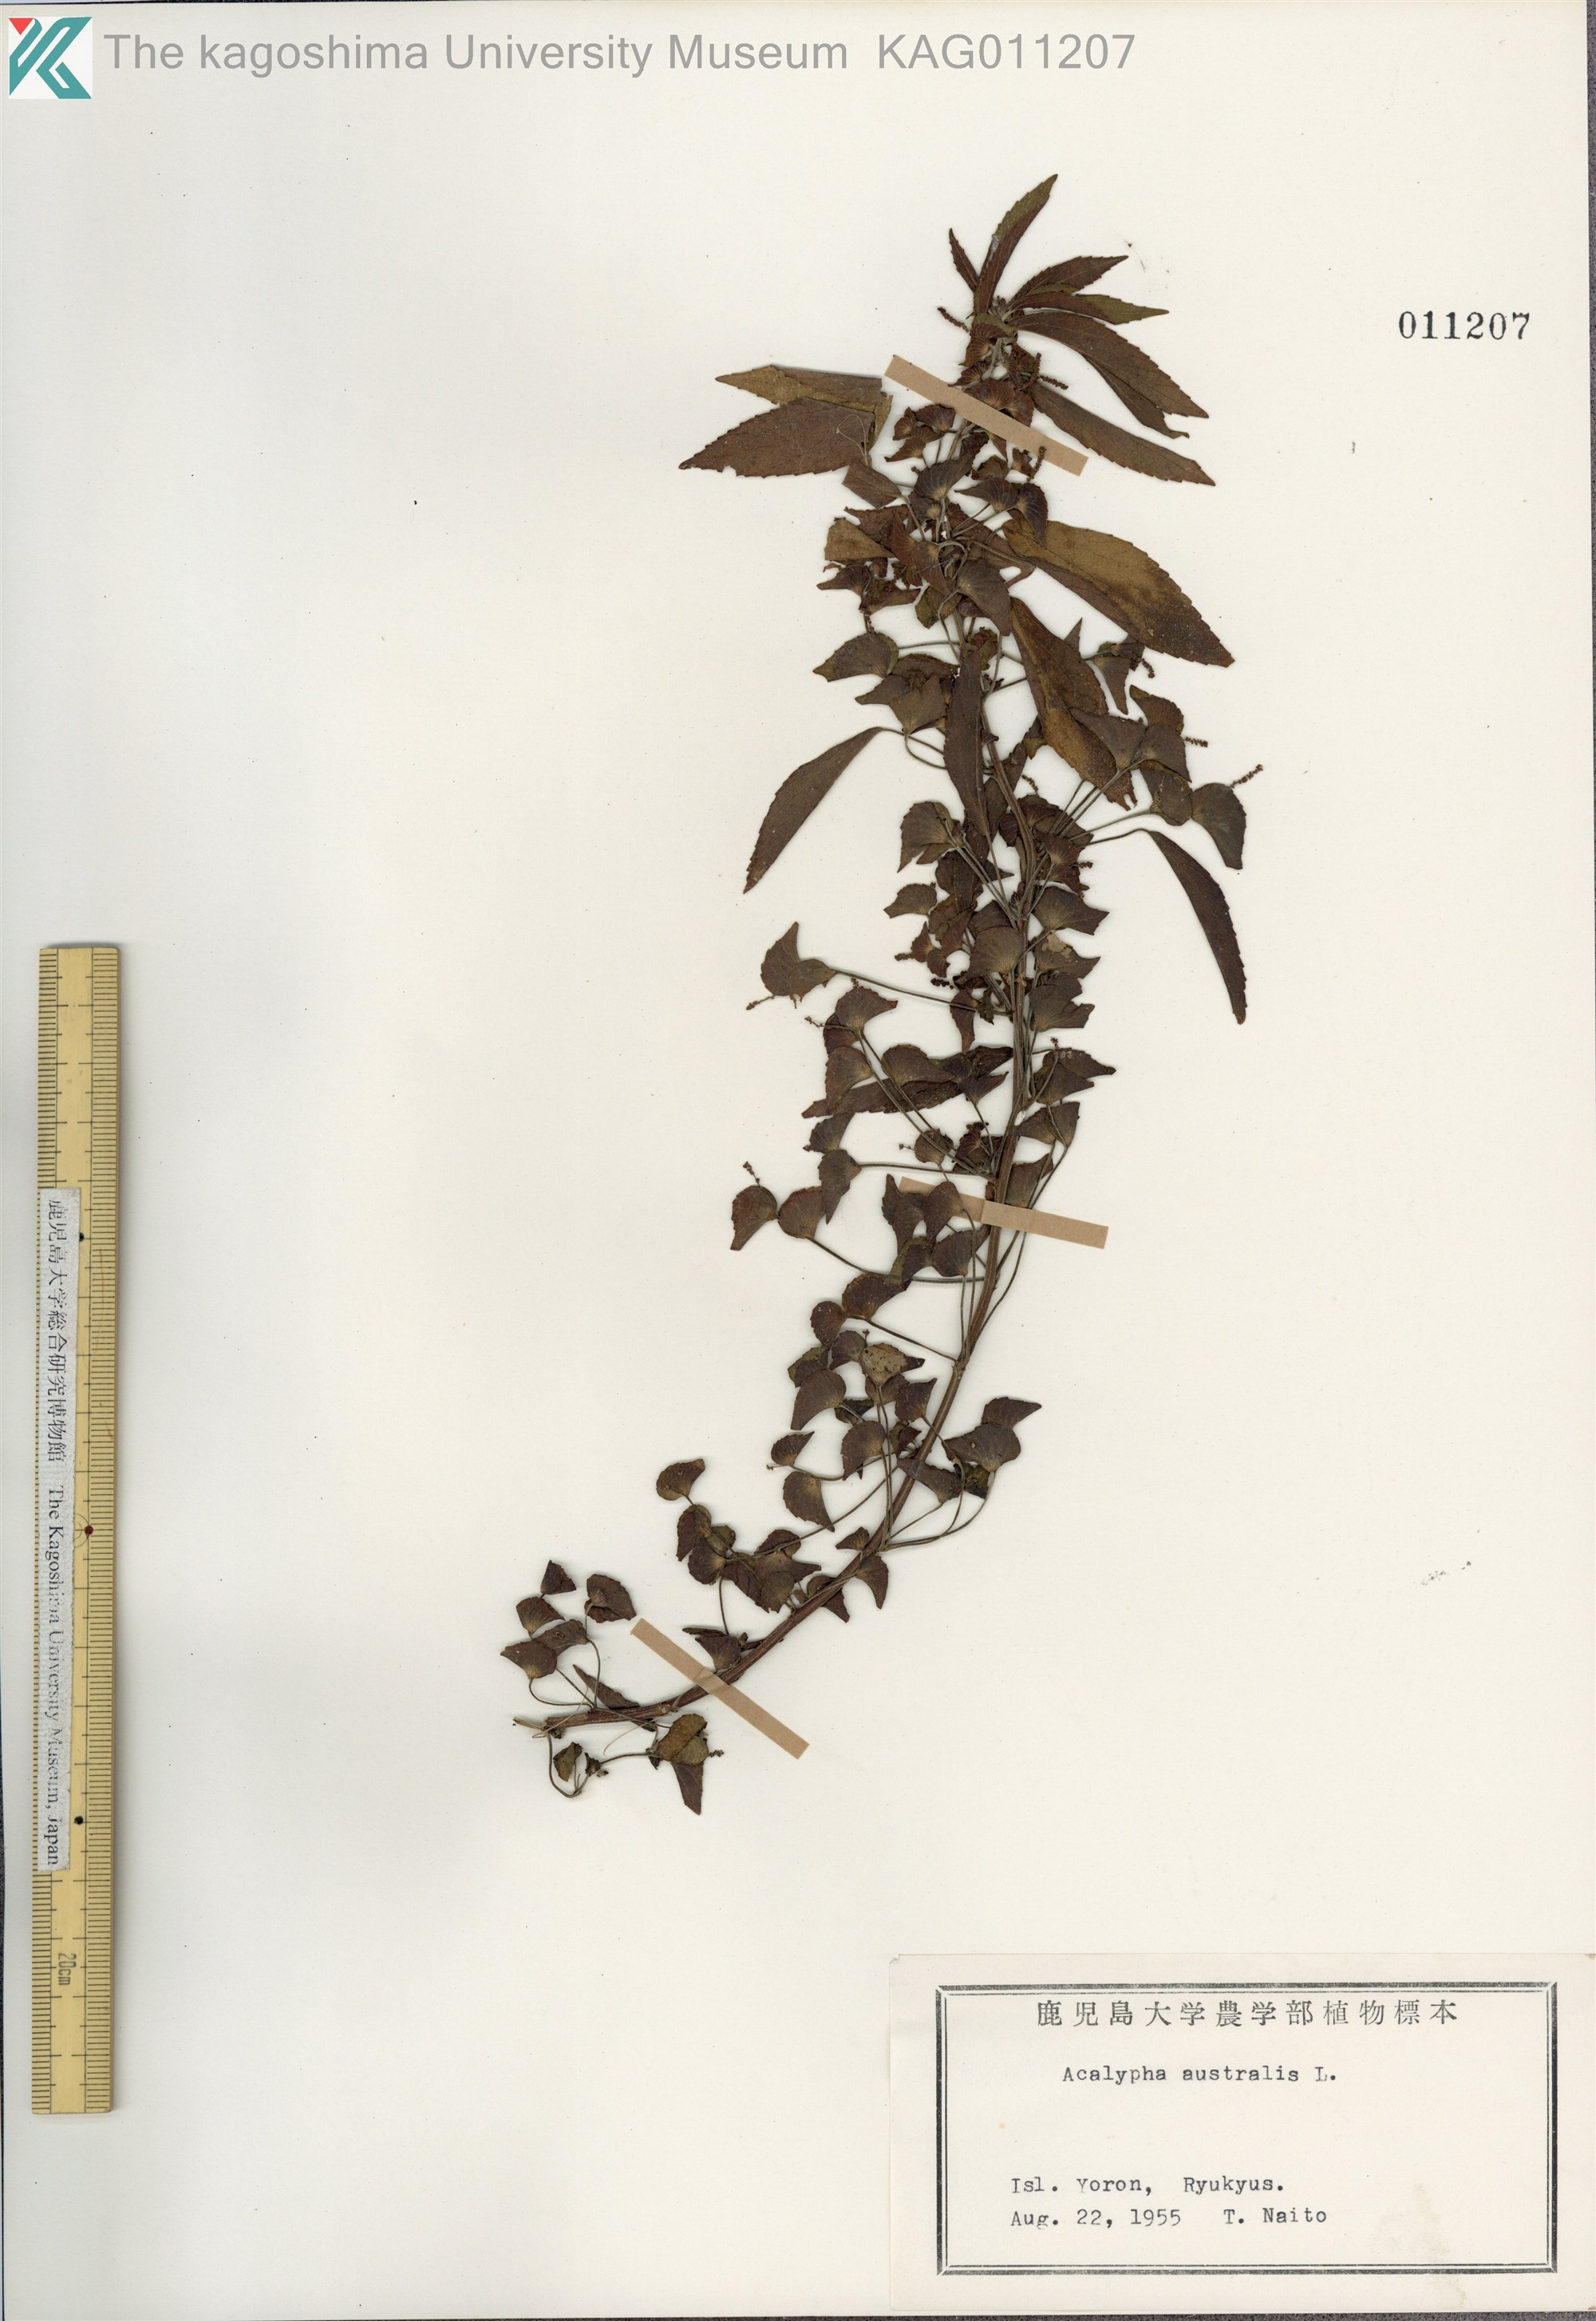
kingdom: Plantae
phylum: Tracheophyta
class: Magnoliopsida
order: Malpighiales
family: Euphorbiaceae
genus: Acalypha
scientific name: Acalypha australis
